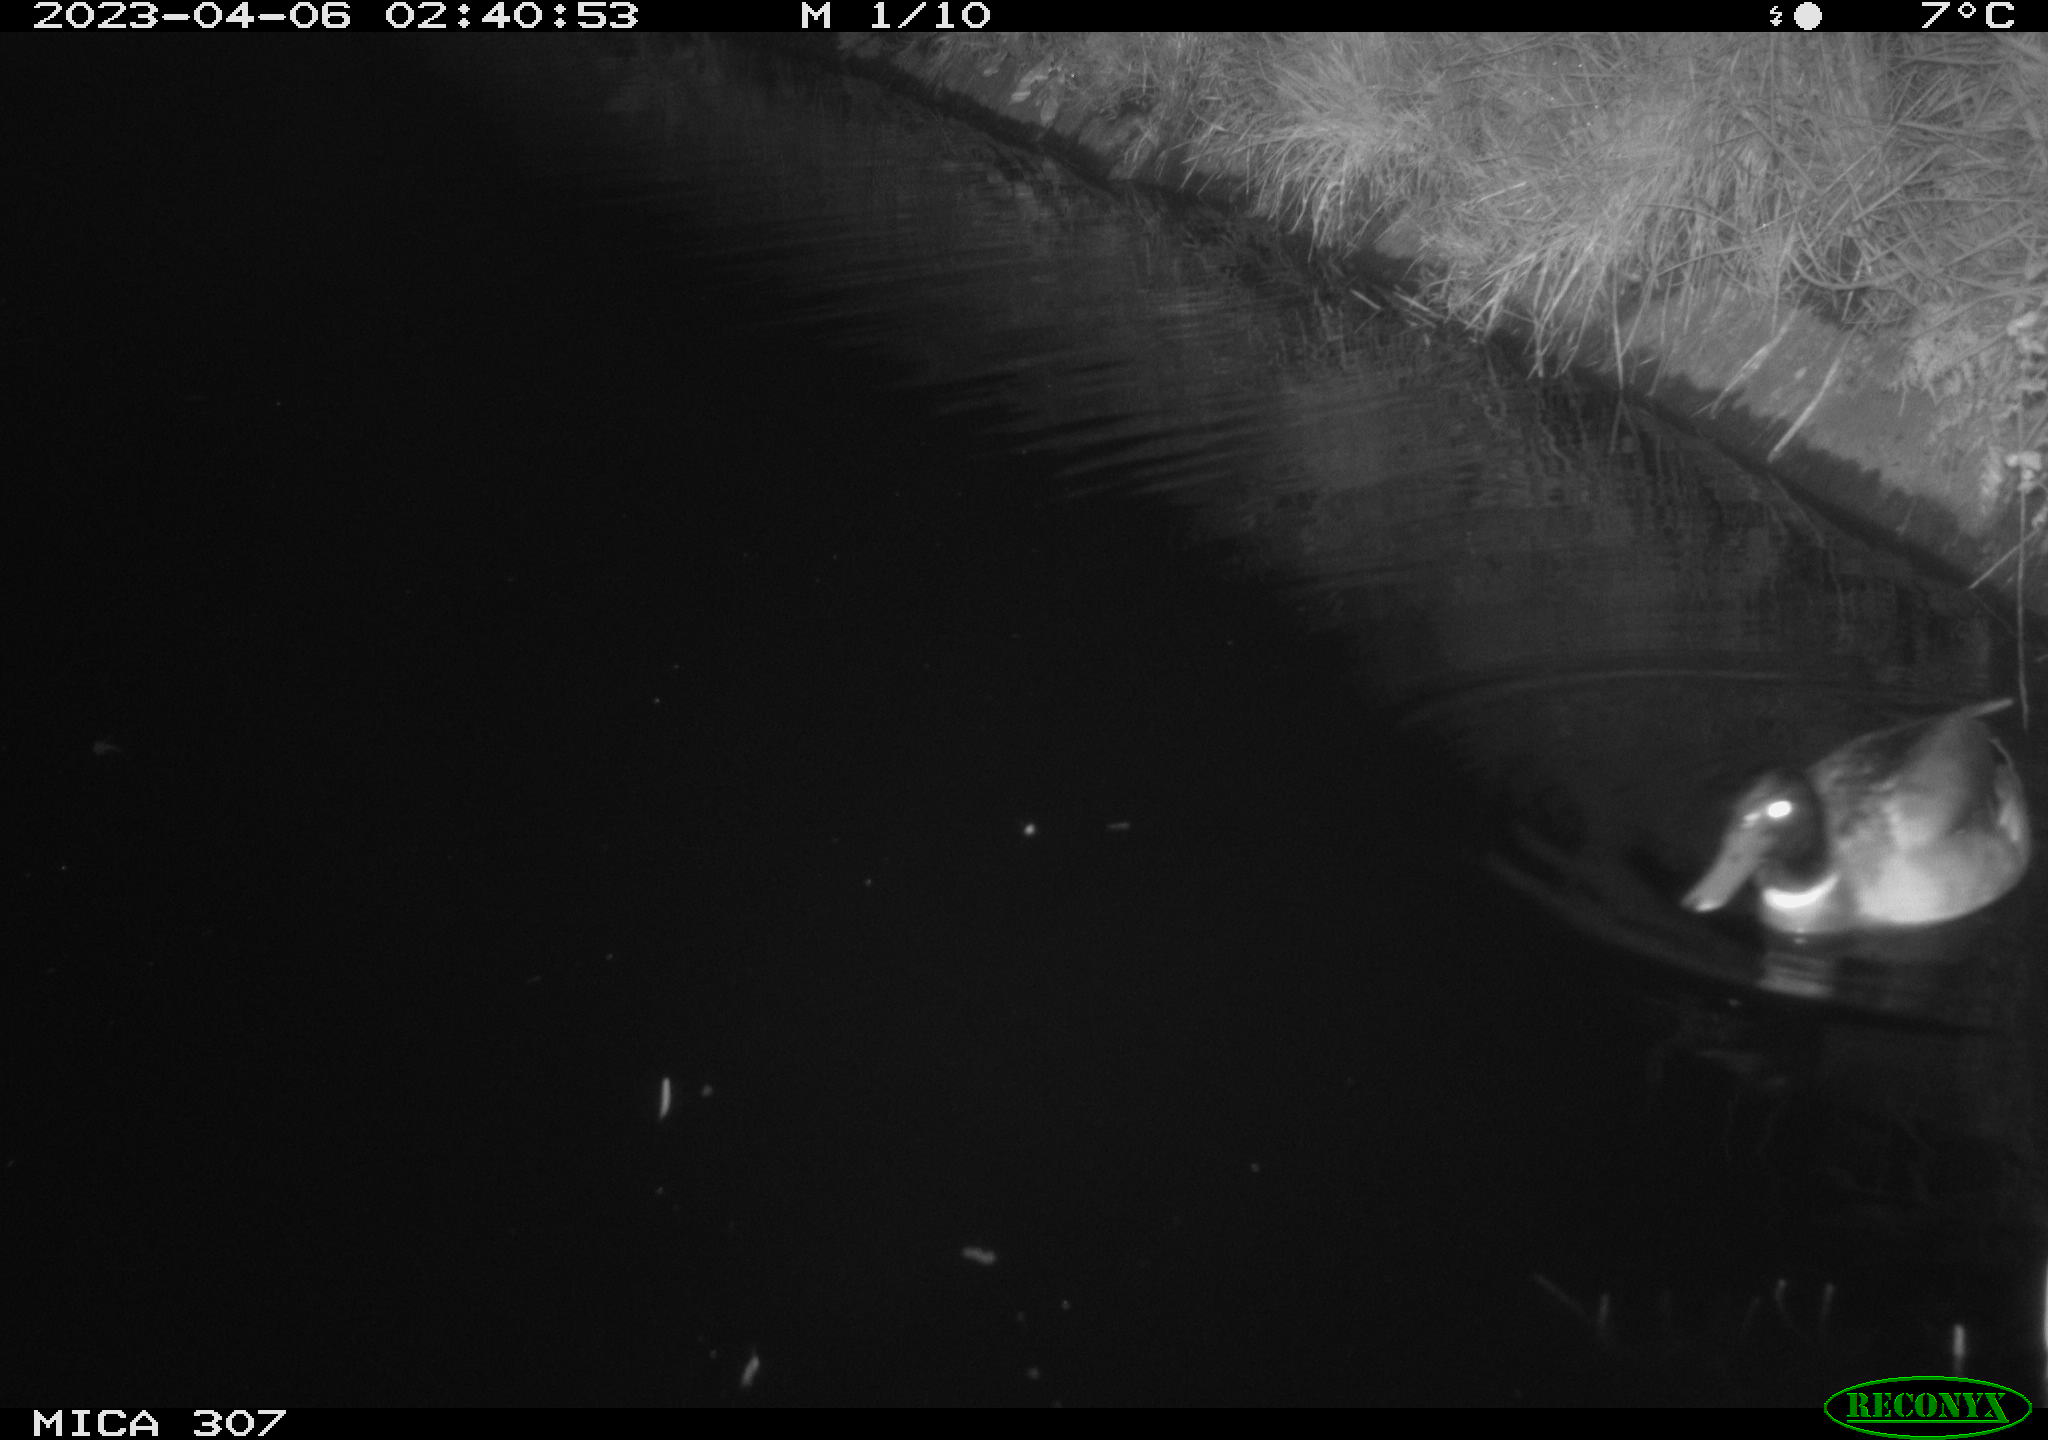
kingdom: Animalia
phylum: Chordata
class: Aves
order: Anseriformes
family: Anatidae
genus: Anas
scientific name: Anas
